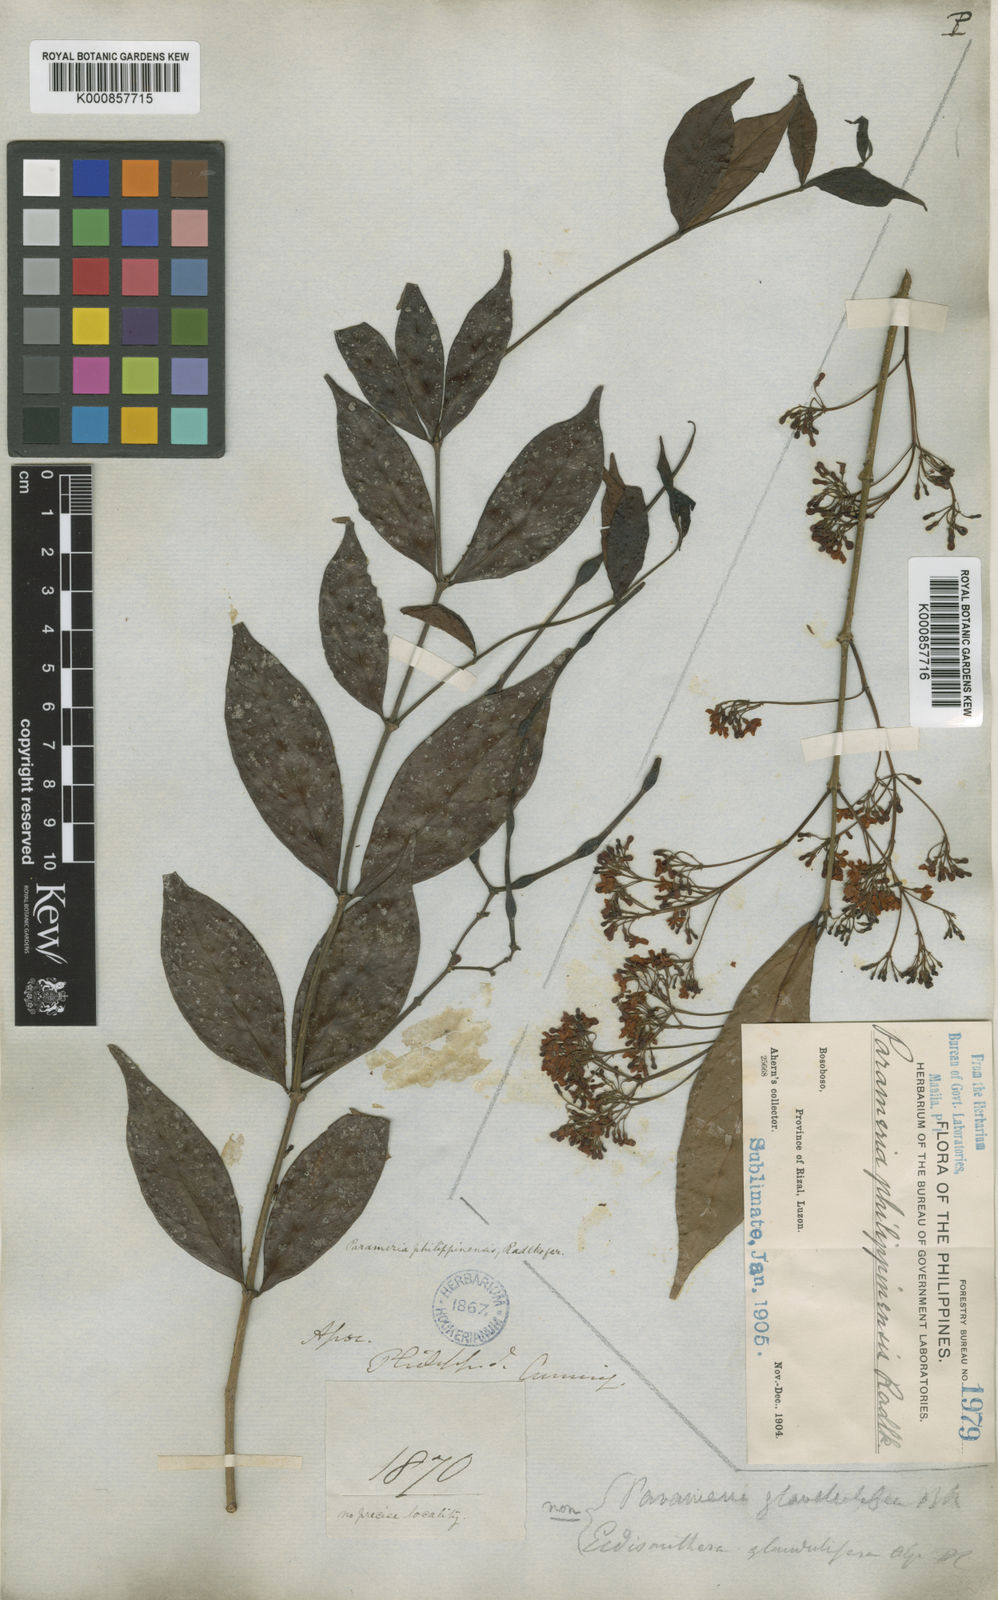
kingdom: Plantae
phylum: Tracheophyta
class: Magnoliopsida
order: Gentianales
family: Apocynaceae
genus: Urceola
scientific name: Urceola laevigata
